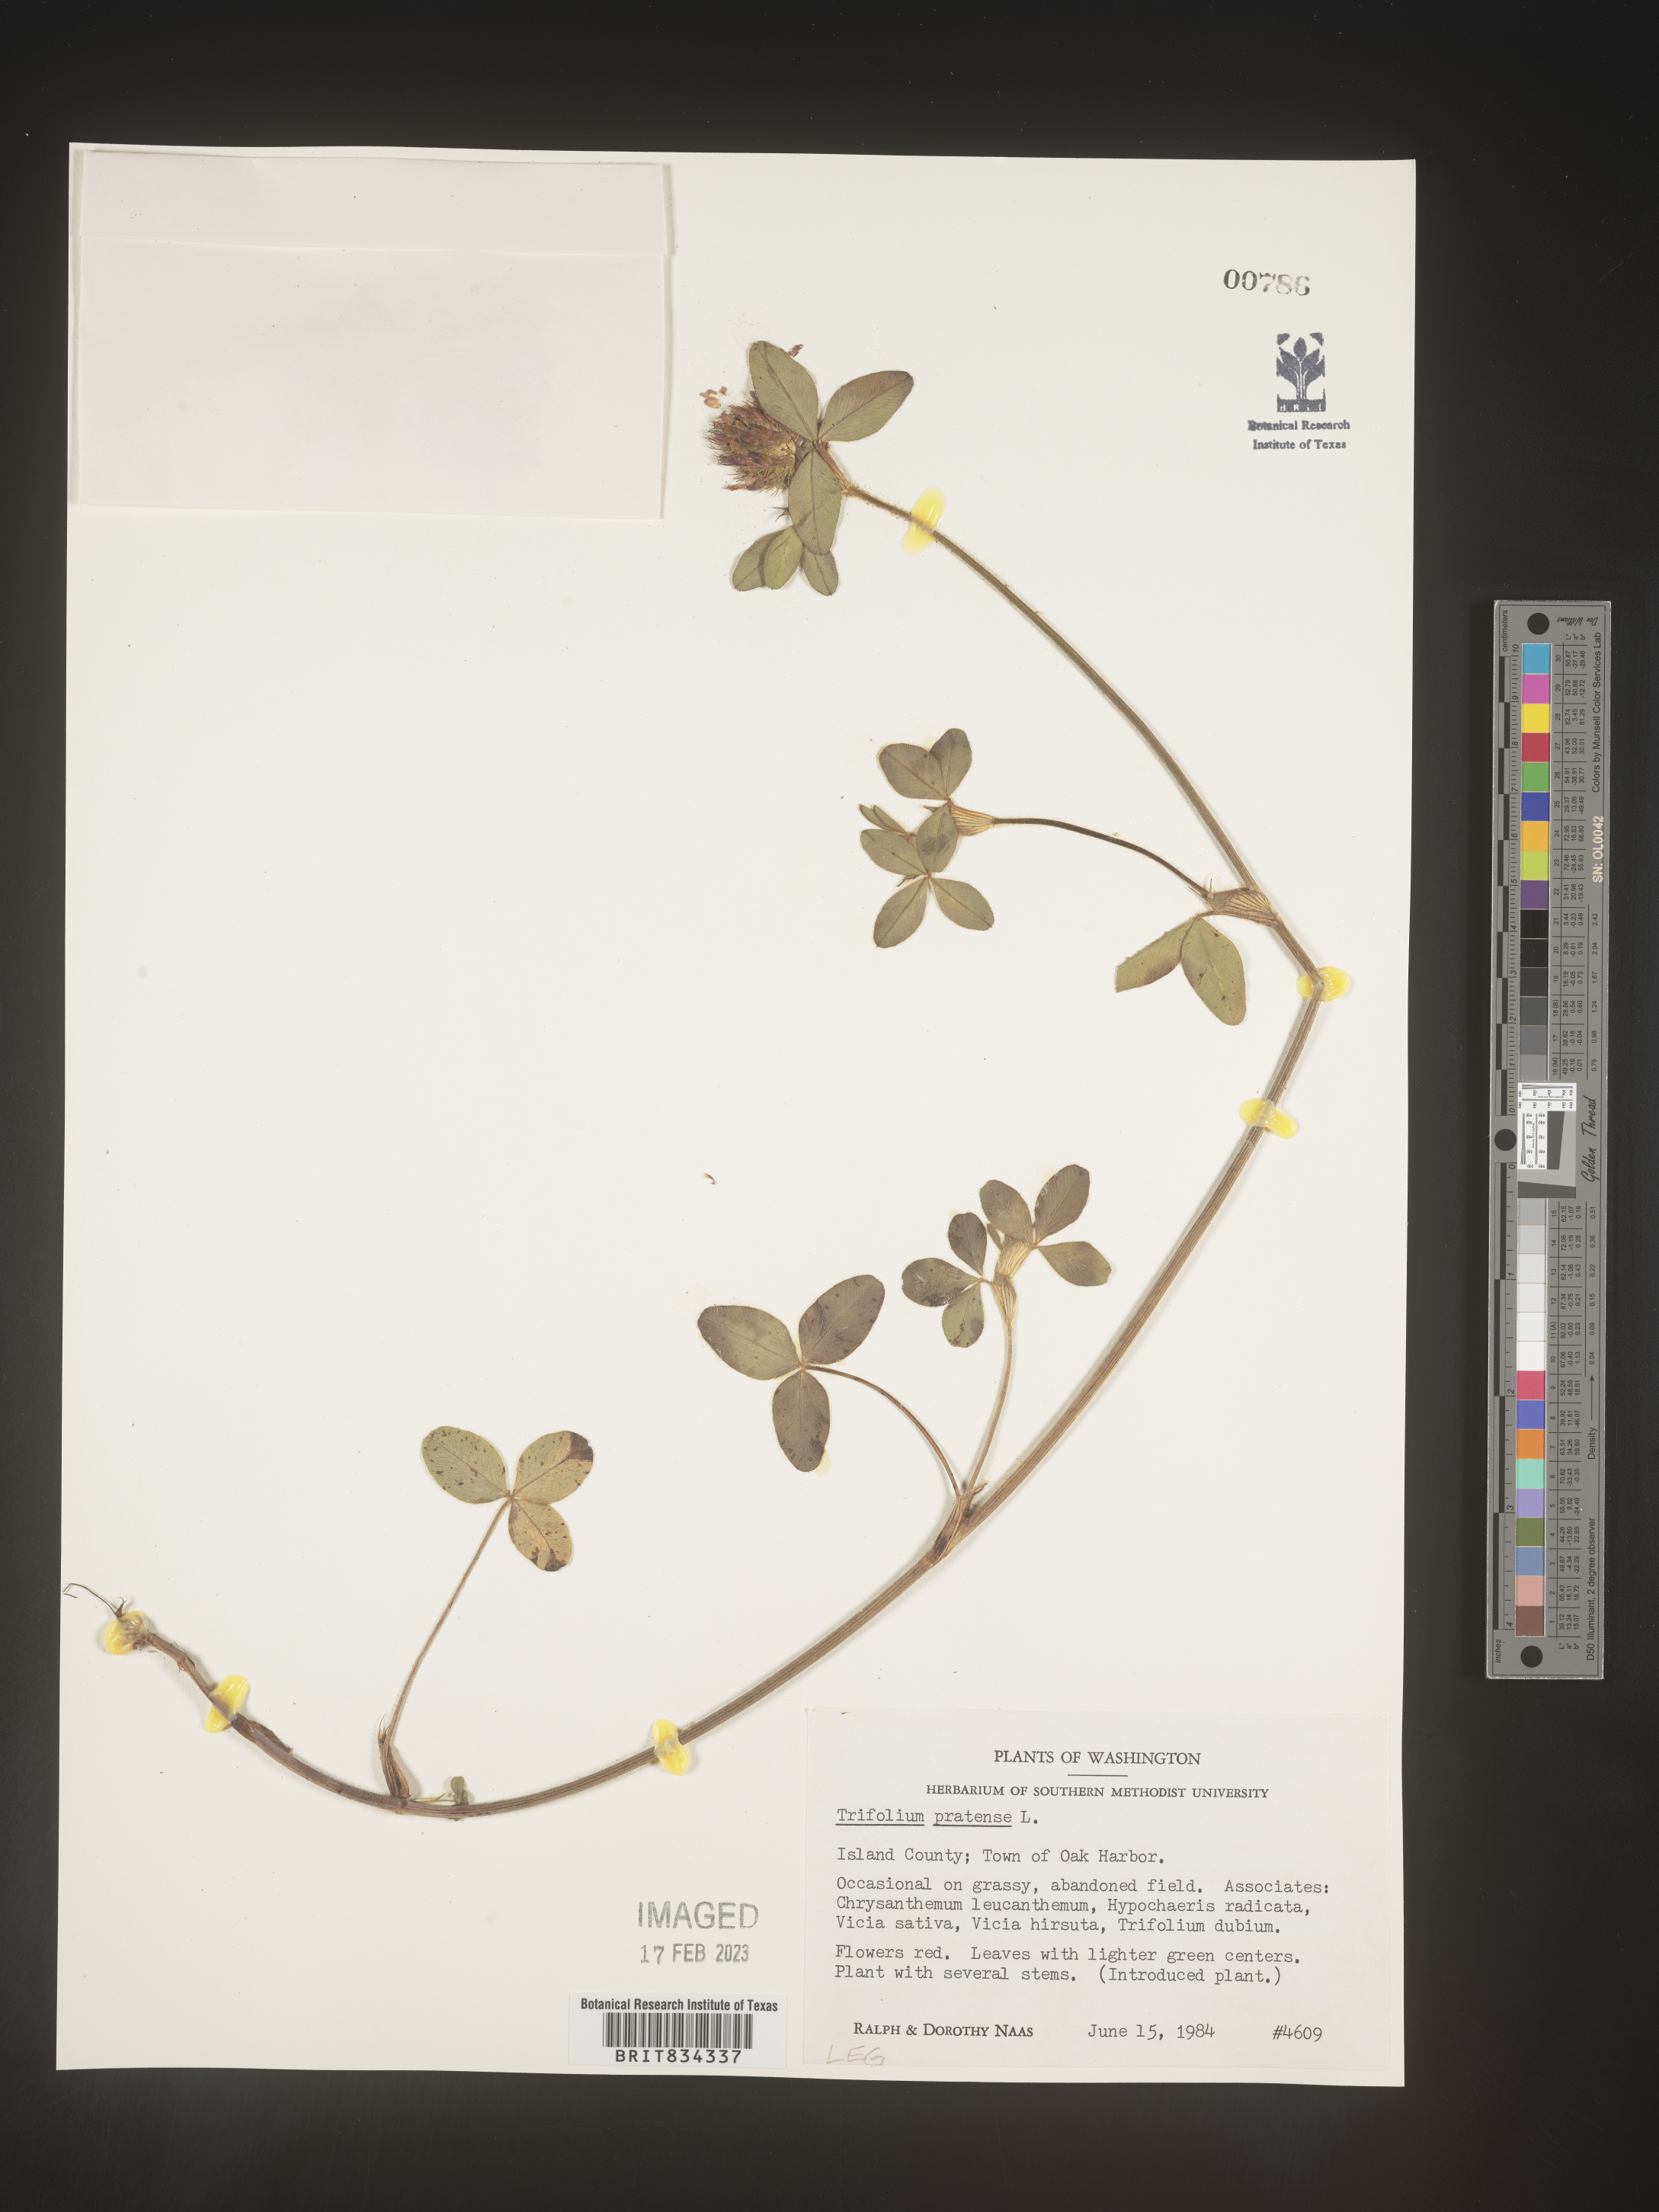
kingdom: Plantae
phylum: Tracheophyta
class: Magnoliopsida
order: Fabales
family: Fabaceae
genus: Trifolium
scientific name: Trifolium pratense
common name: Red clover
